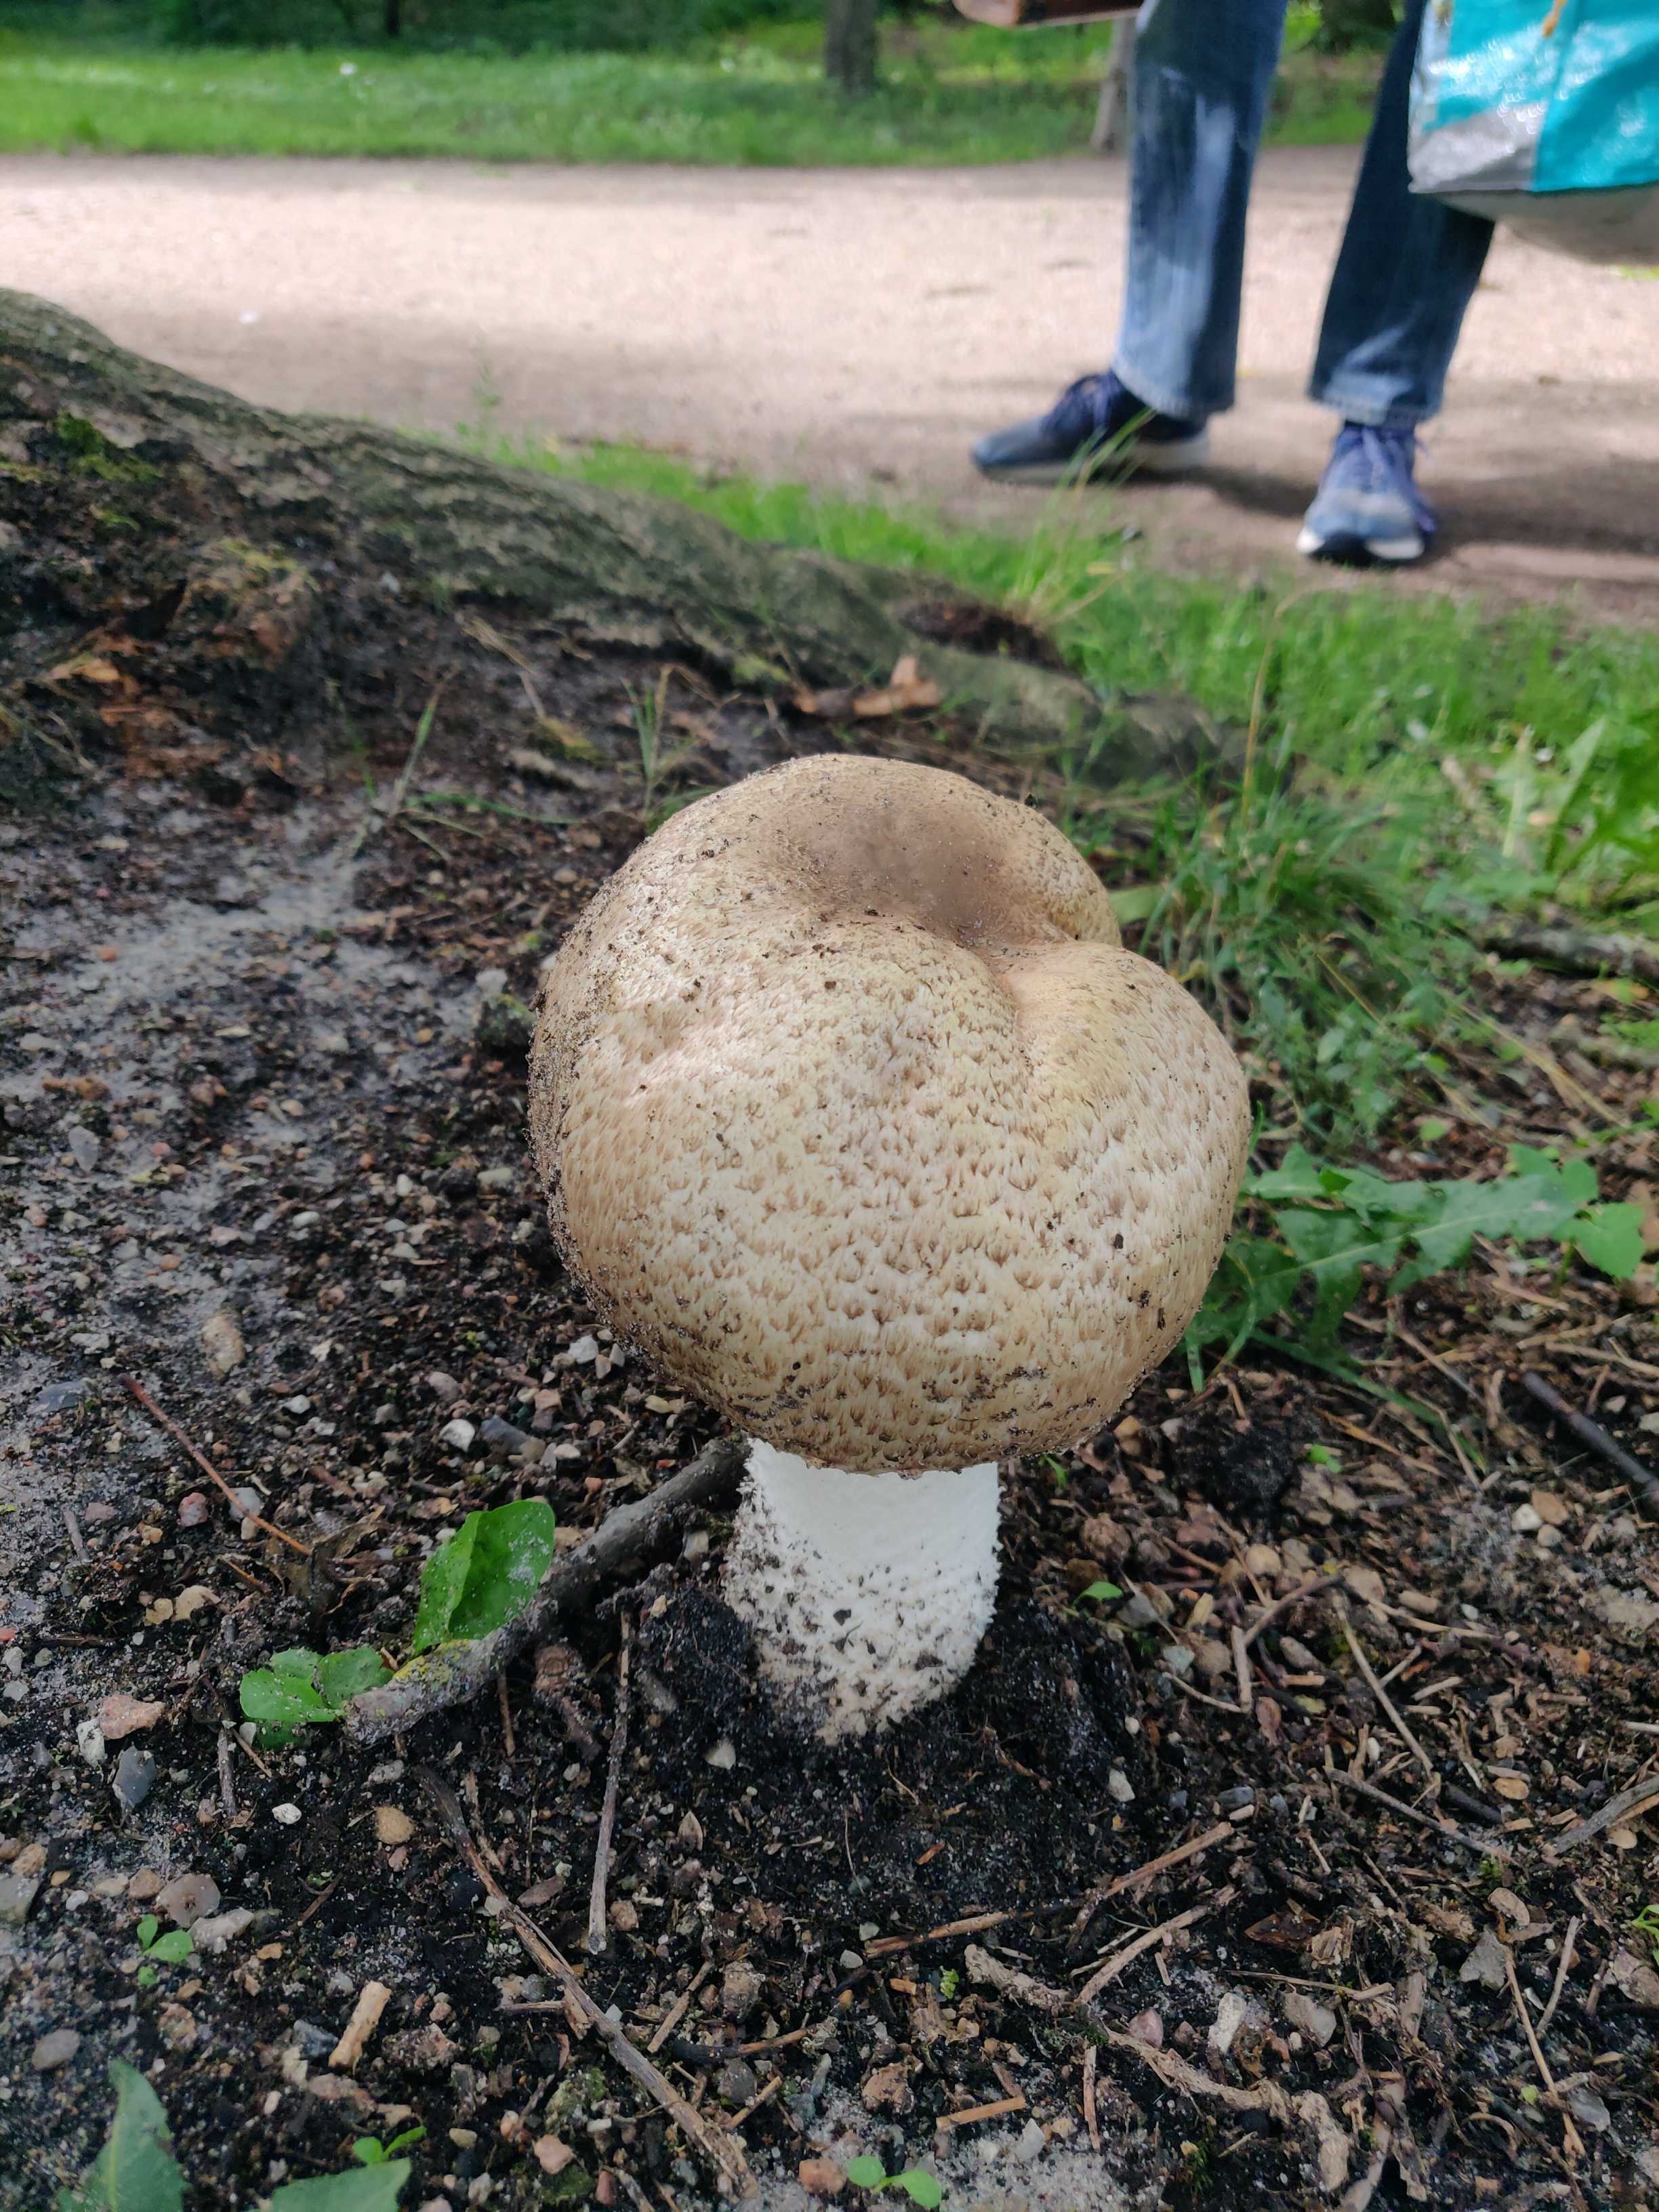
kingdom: Fungi
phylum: Basidiomycota
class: Agaricomycetes
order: Agaricales
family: Agaricaceae
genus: Agaricus
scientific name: Agaricus augustus
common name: prægtig champignon
